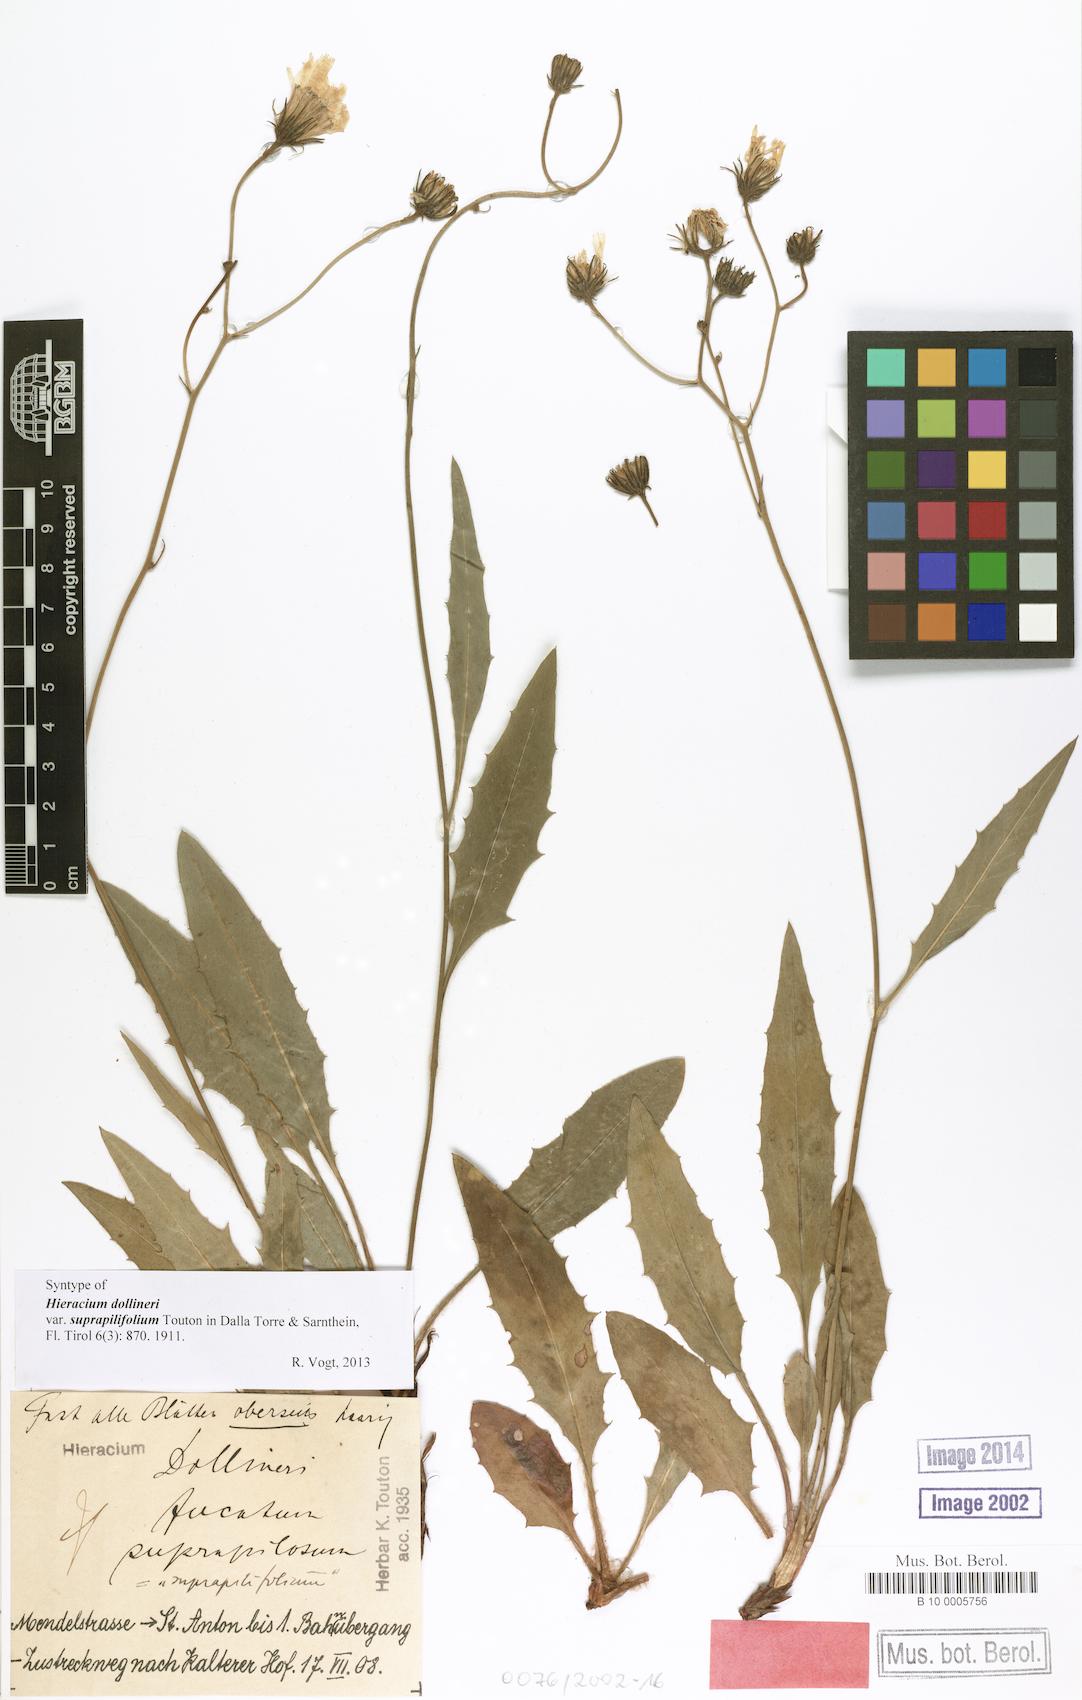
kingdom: Plantae
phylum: Tracheophyta
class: Magnoliopsida
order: Asterales
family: Asteraceae
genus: Hieracium
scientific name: Hieracium dollineri
